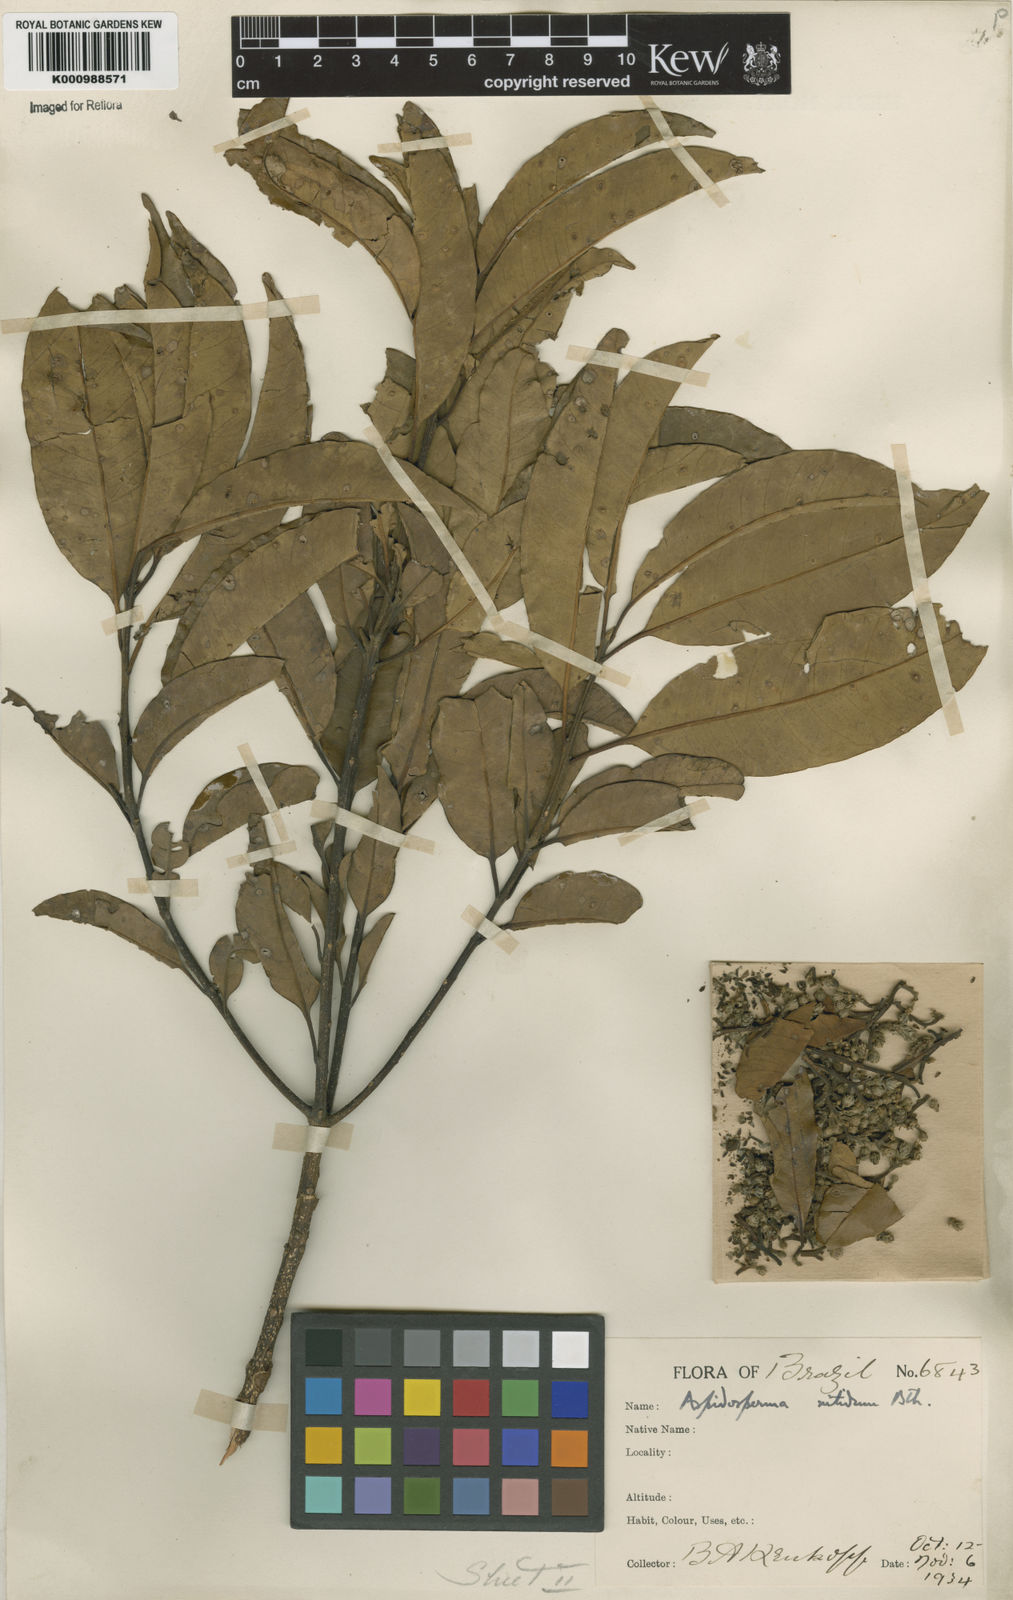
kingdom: Plantae
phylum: Tracheophyta
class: Magnoliopsida
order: Gentianales
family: Apocynaceae
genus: Aspidosperma
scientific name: Aspidosperma
